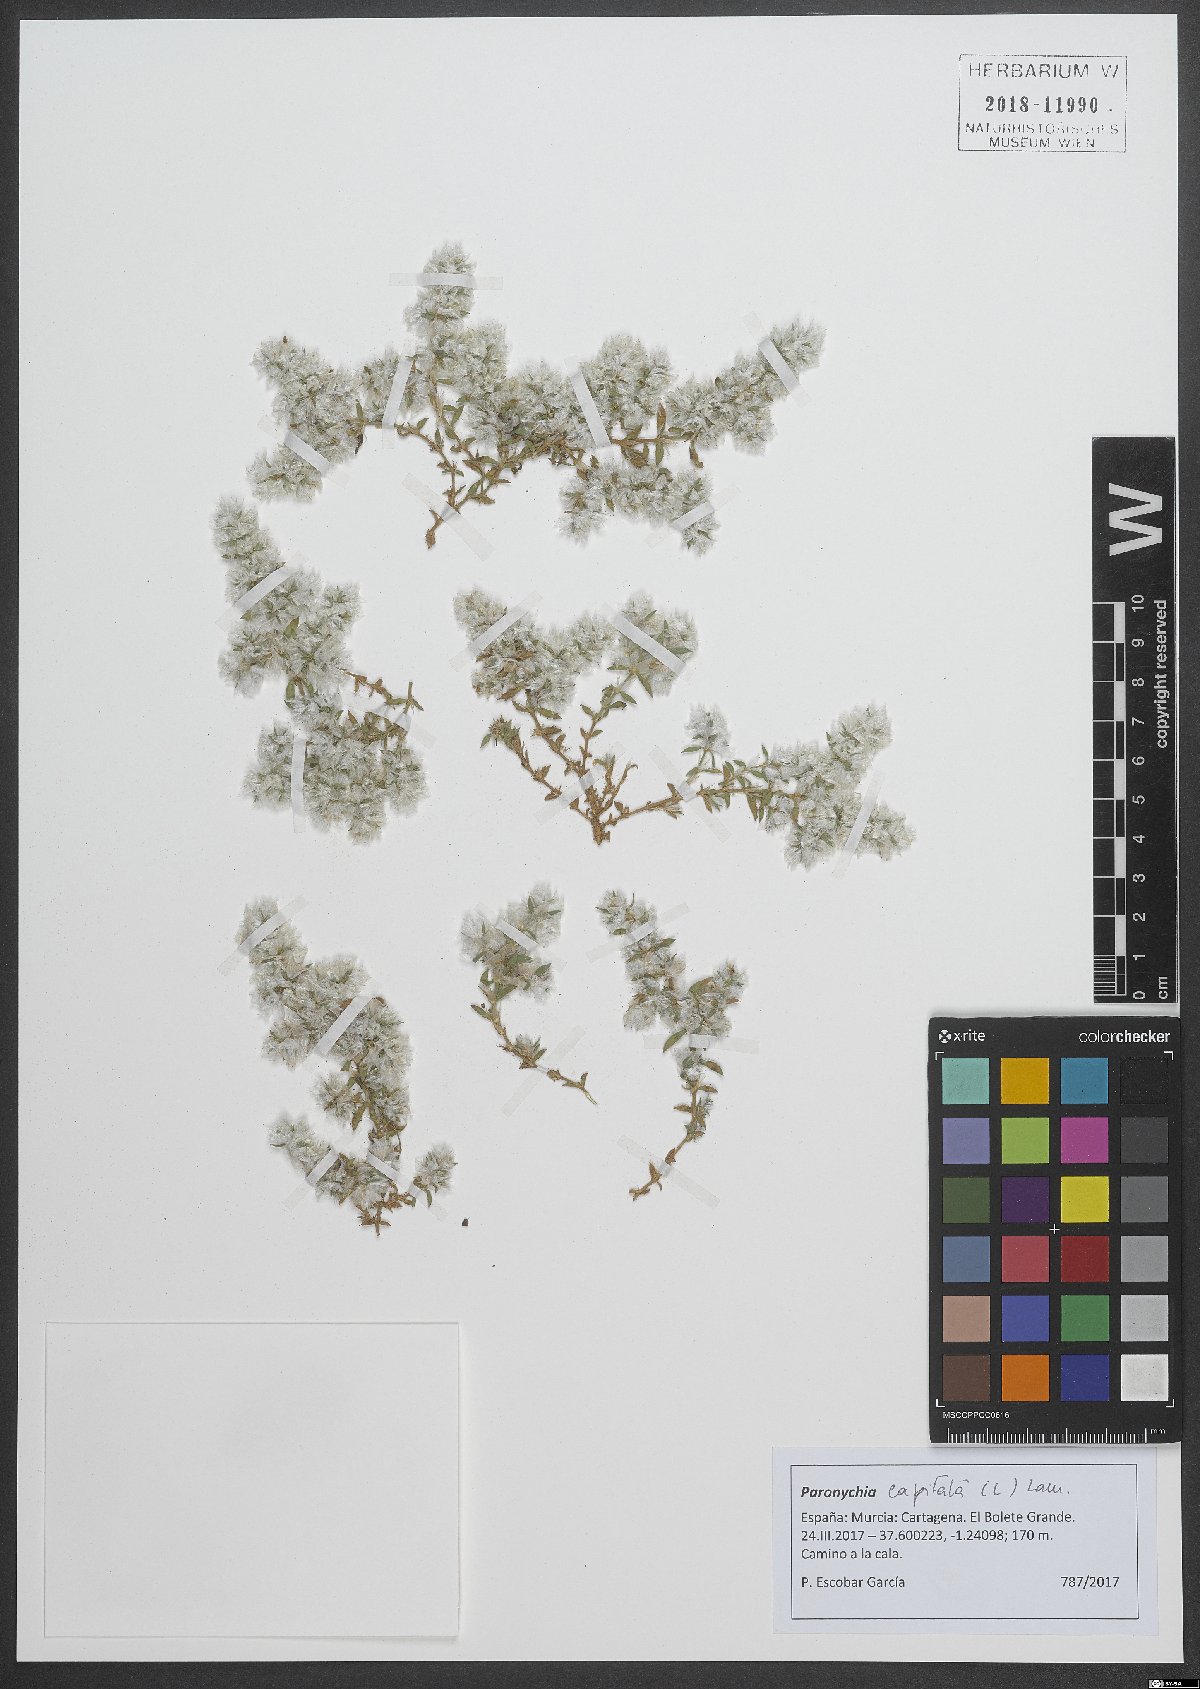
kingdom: Plantae
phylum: Tracheophyta
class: Magnoliopsida
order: Caryophyllales
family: Caryophyllaceae
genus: Paronychia
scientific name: Paronychia capitata
